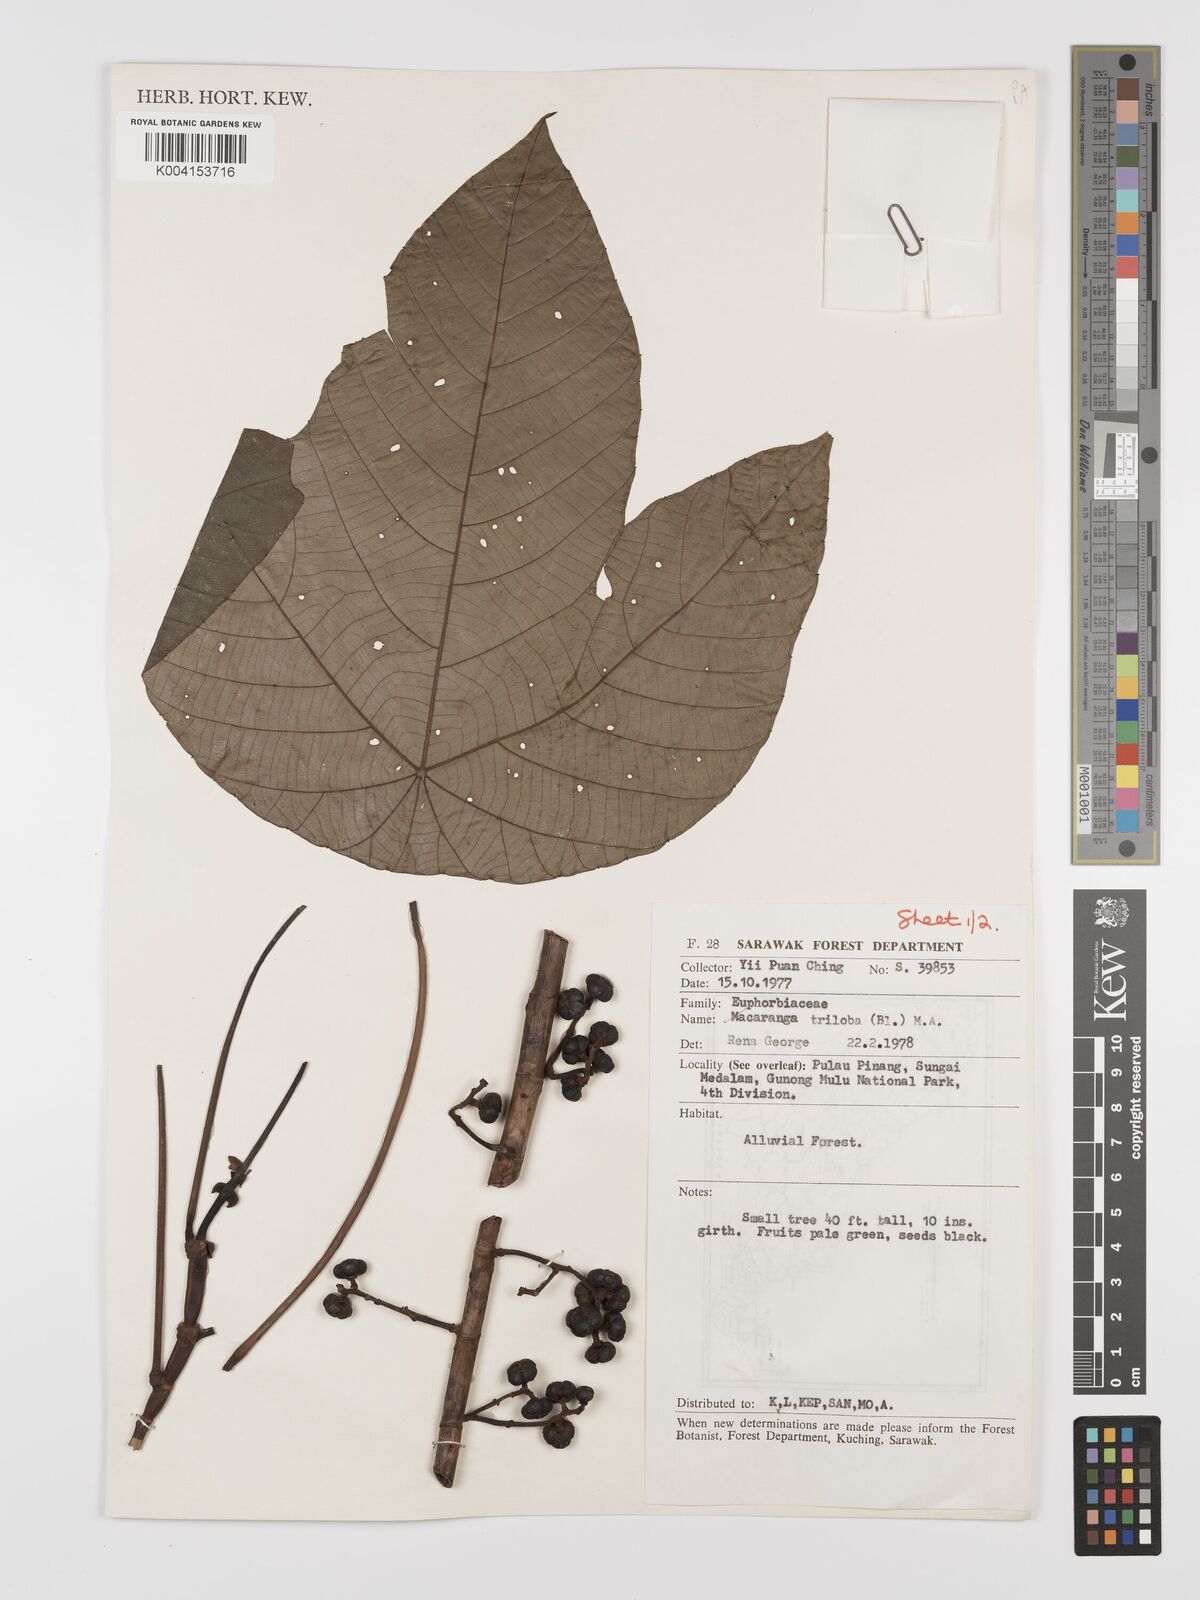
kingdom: Plantae
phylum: Tracheophyta
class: Magnoliopsida
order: Malpighiales
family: Euphorbiaceae
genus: Macaranga
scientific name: Macaranga triloba
